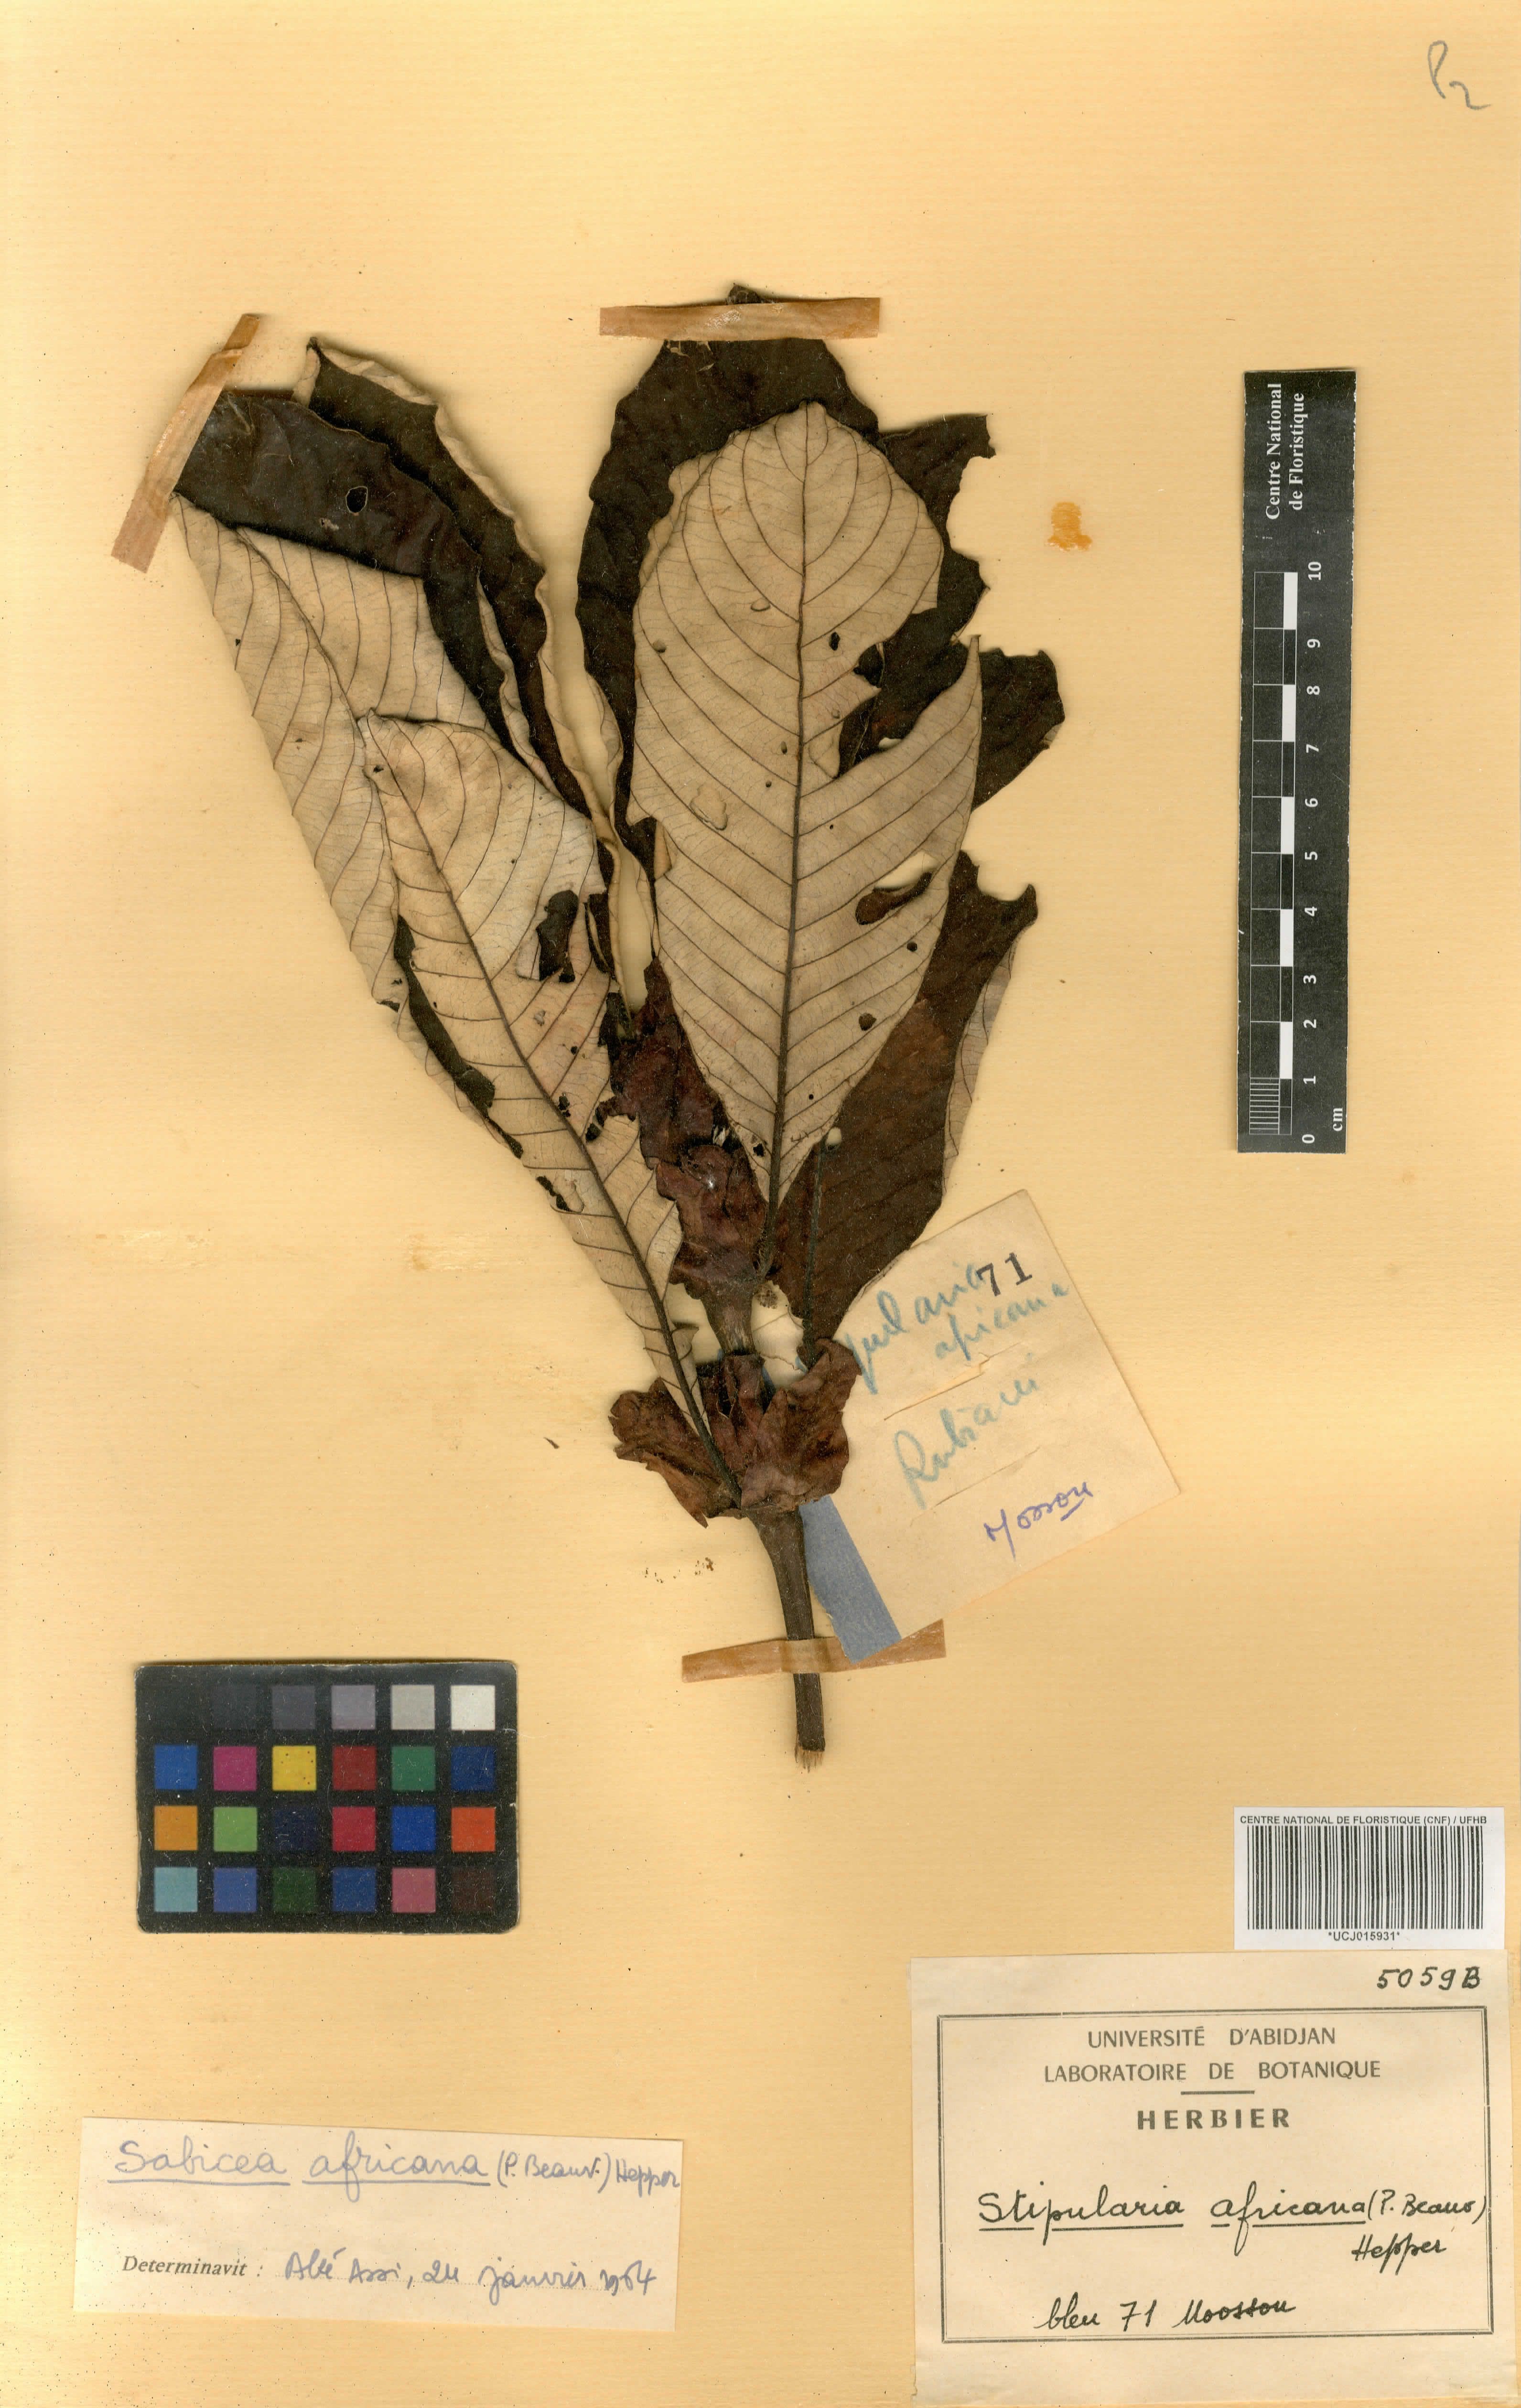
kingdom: Plantae
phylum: Tracheophyta
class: Magnoliopsida
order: Gentianales
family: Rubiaceae
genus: Stipularia
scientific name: Stipularia africana
